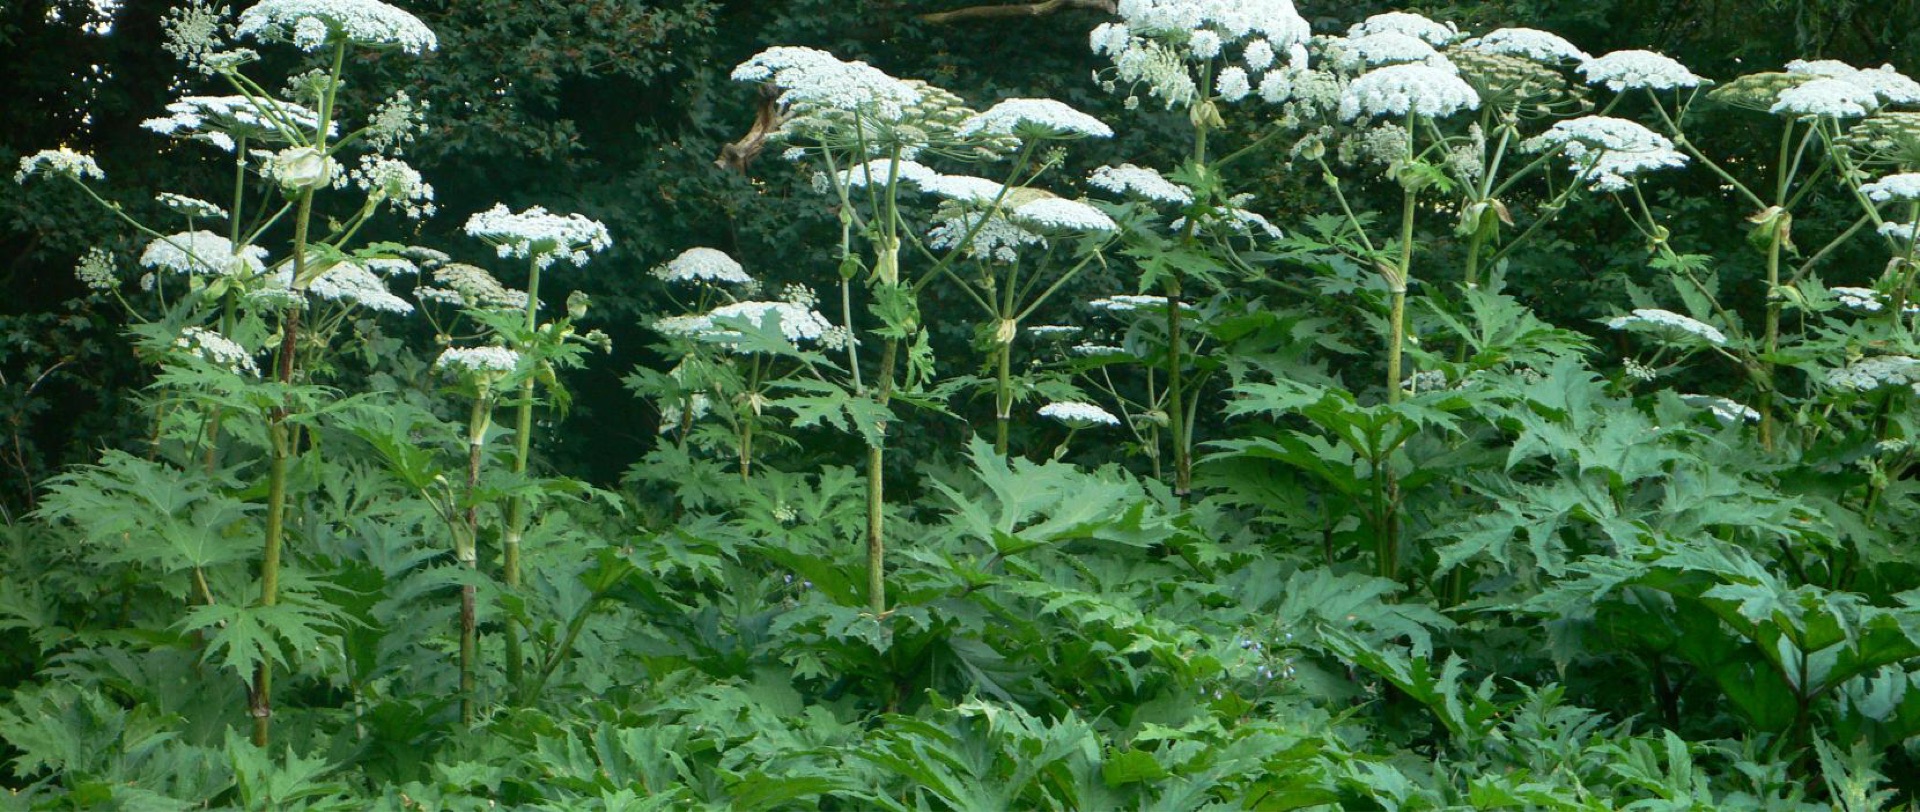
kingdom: Plantae
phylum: Tracheophyta
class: Magnoliopsida
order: Apiales
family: Apiaceae
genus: Heracleum
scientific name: Heracleum mantegazzianum
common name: Kæmpe-bjørneklo
